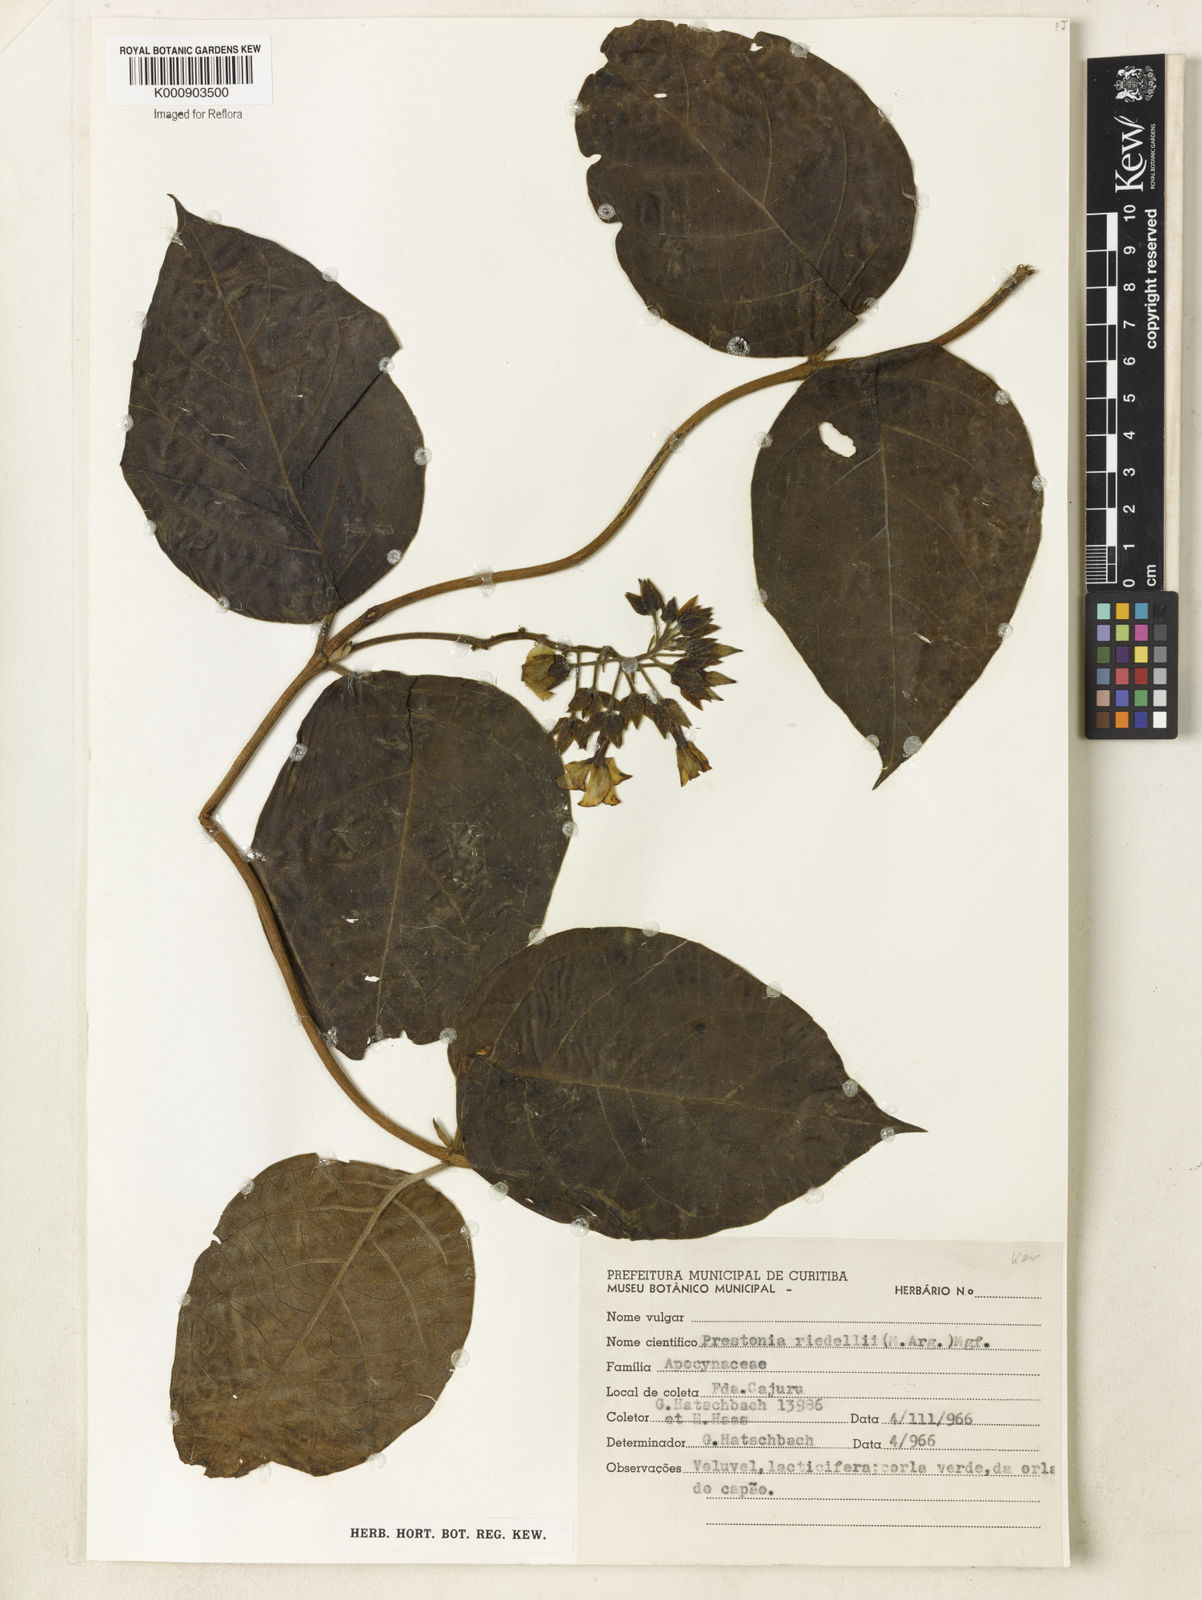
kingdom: Plantae
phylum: Tracheophyta
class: Magnoliopsida
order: Gentianales
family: Apocynaceae
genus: Prestonia
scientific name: Prestonia
